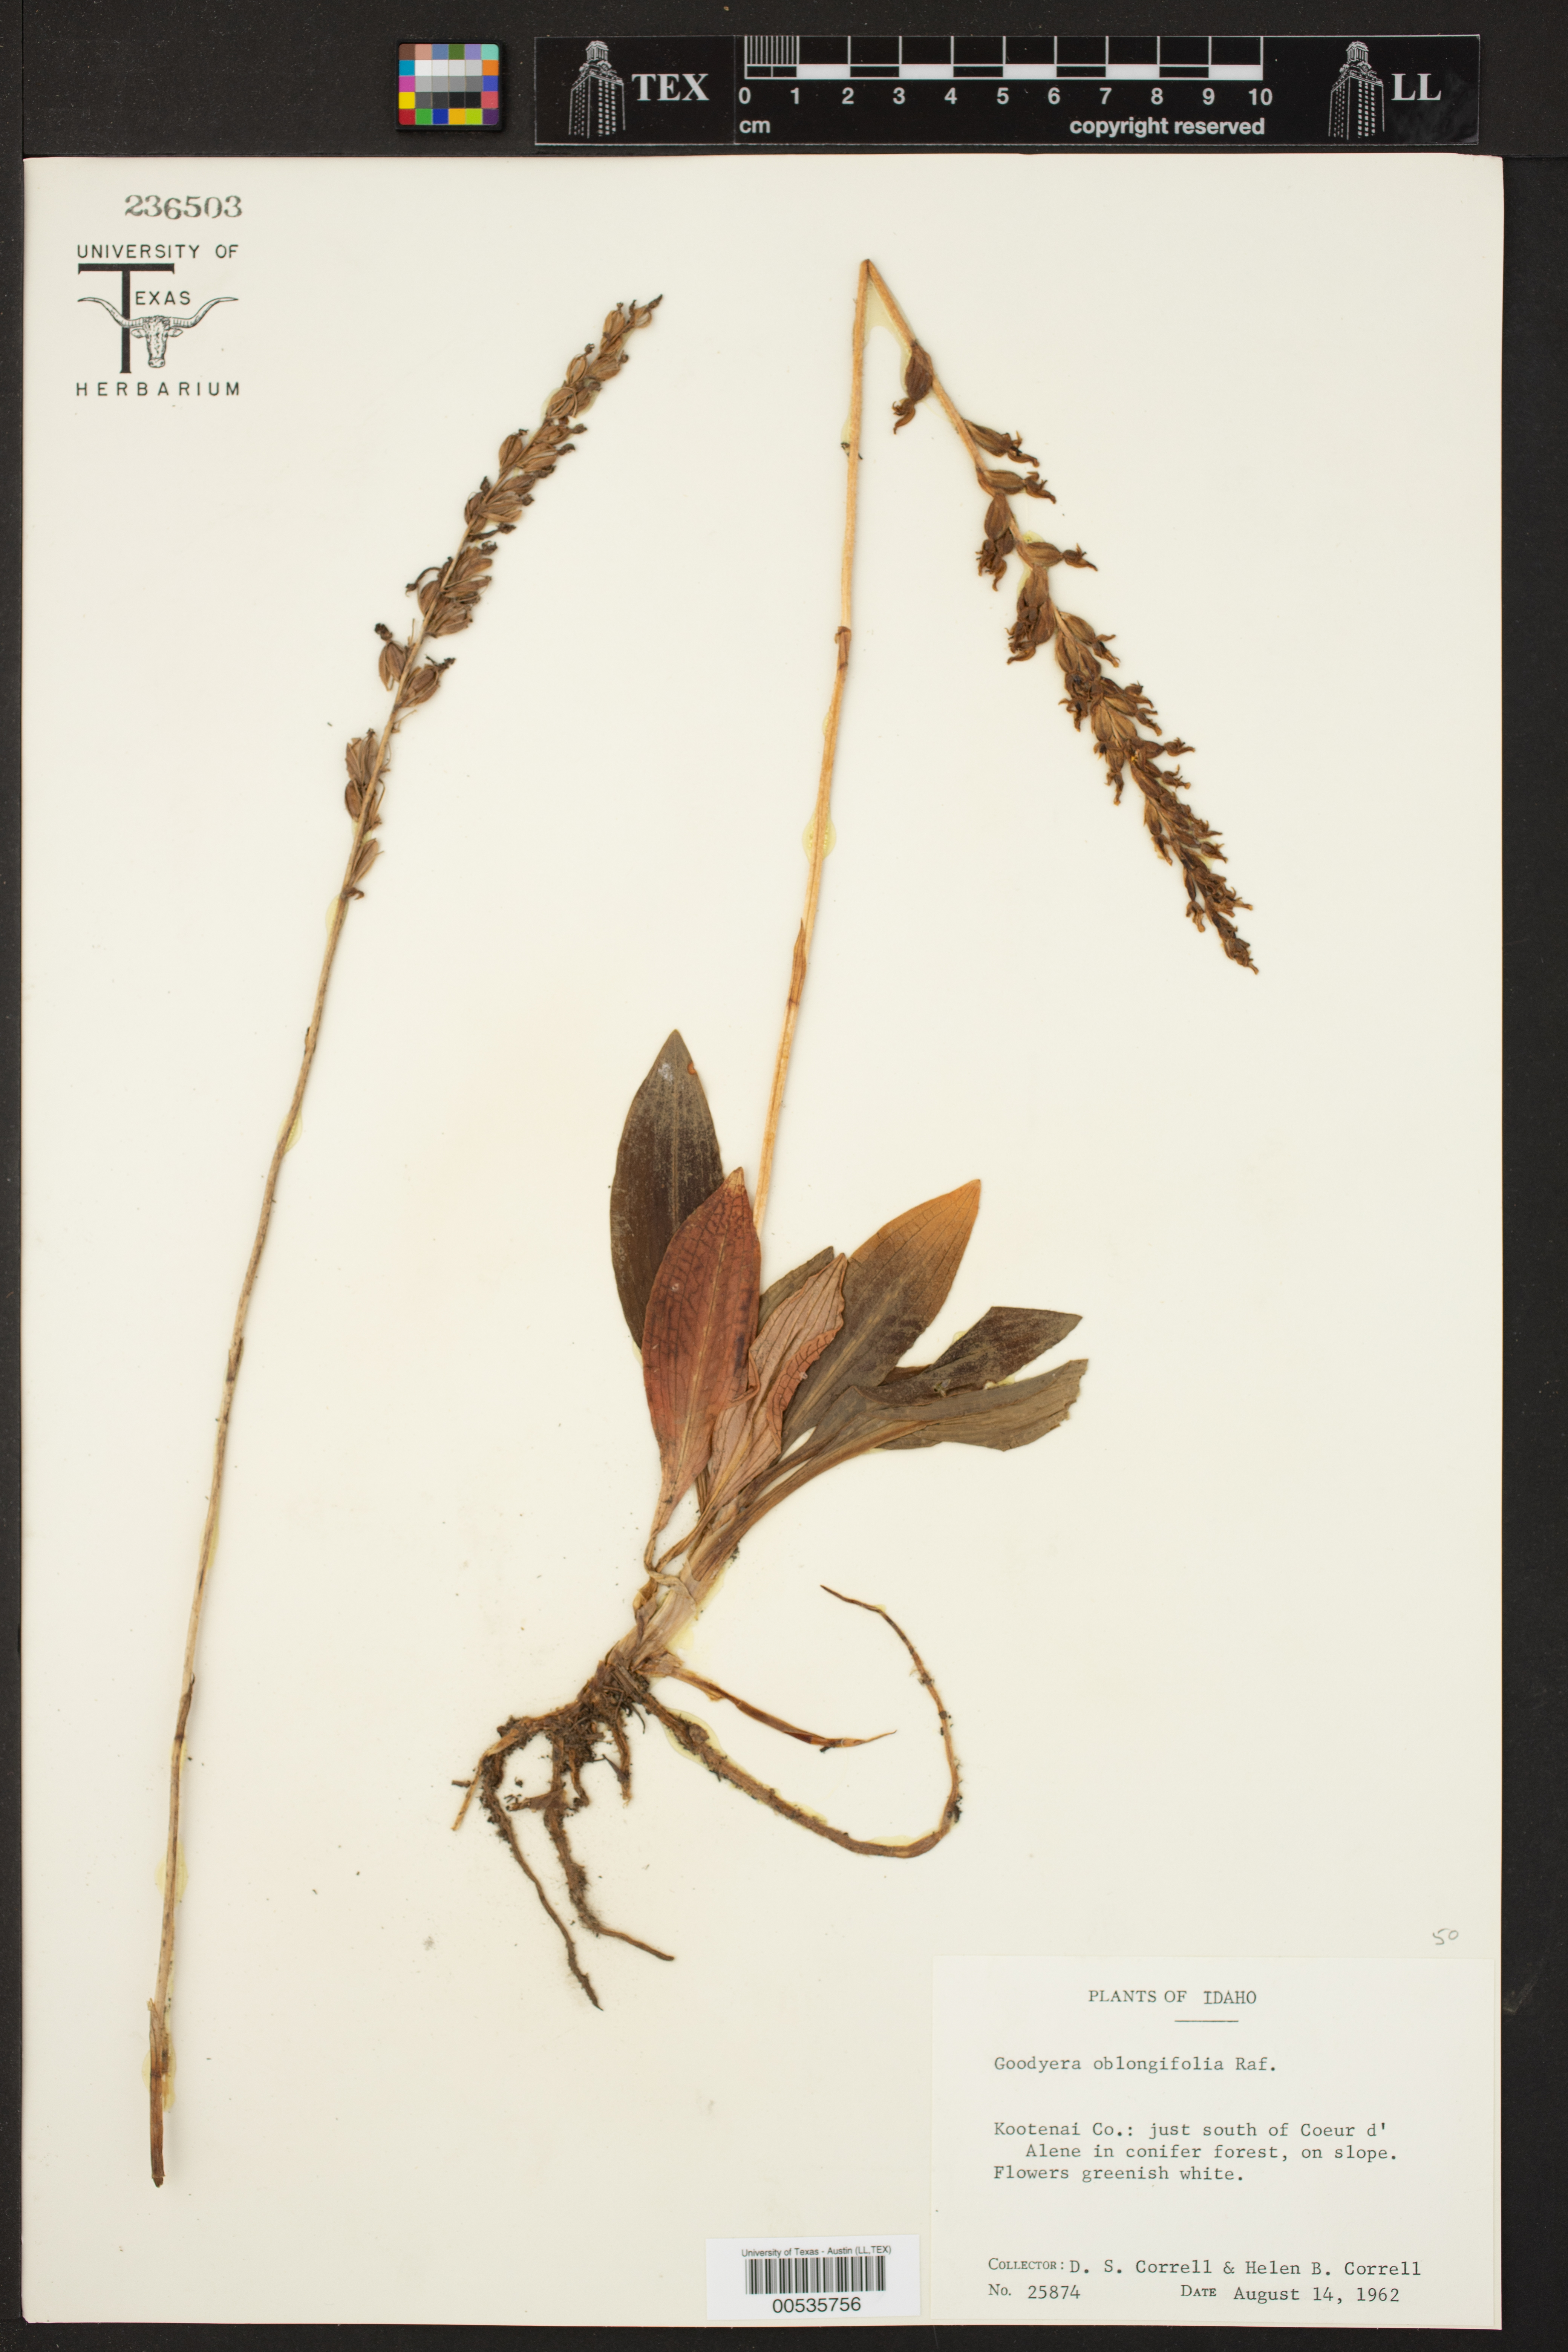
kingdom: Plantae
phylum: Tracheophyta
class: Liliopsida
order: Asparagales
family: Orchidaceae
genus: Goodyera
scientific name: Goodyera oblongifolia
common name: Giant rattlesnake-plantain
